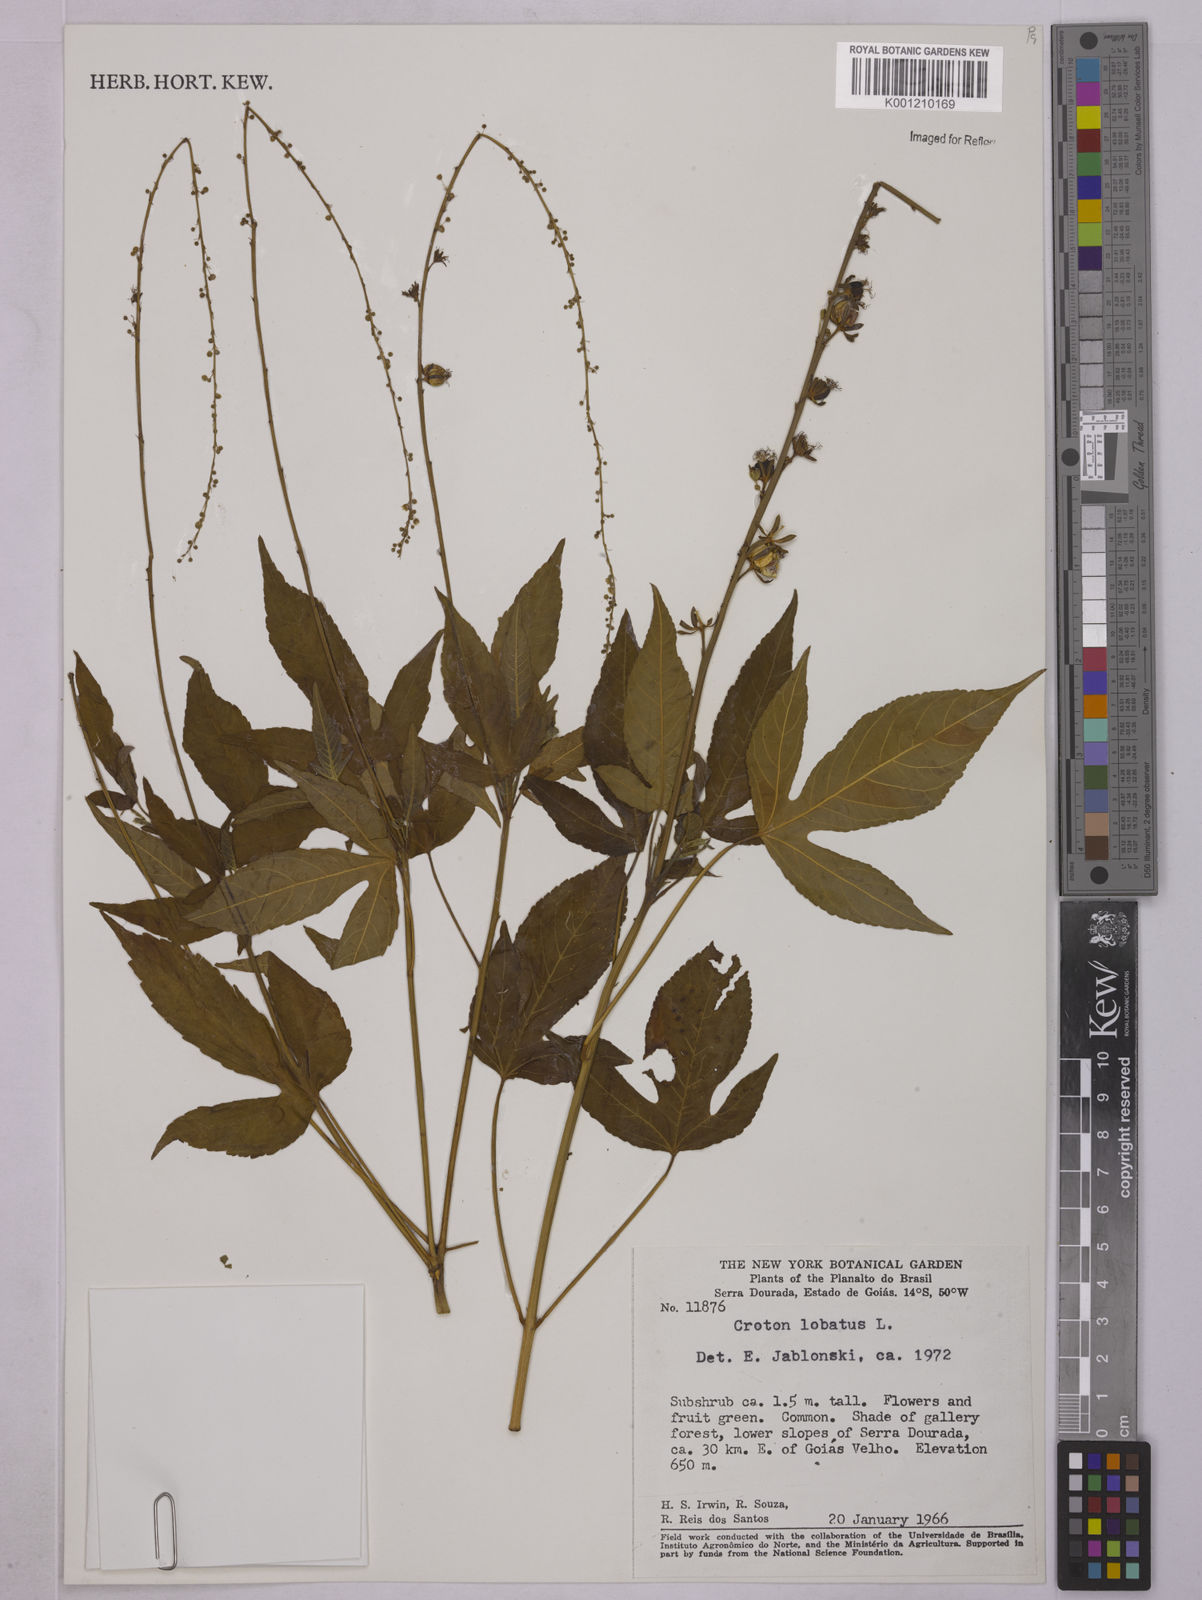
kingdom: Plantae
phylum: Tracheophyta
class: Magnoliopsida
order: Malpighiales
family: Euphorbiaceae
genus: Astraea
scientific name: Astraea lobata
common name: Lobed croton
